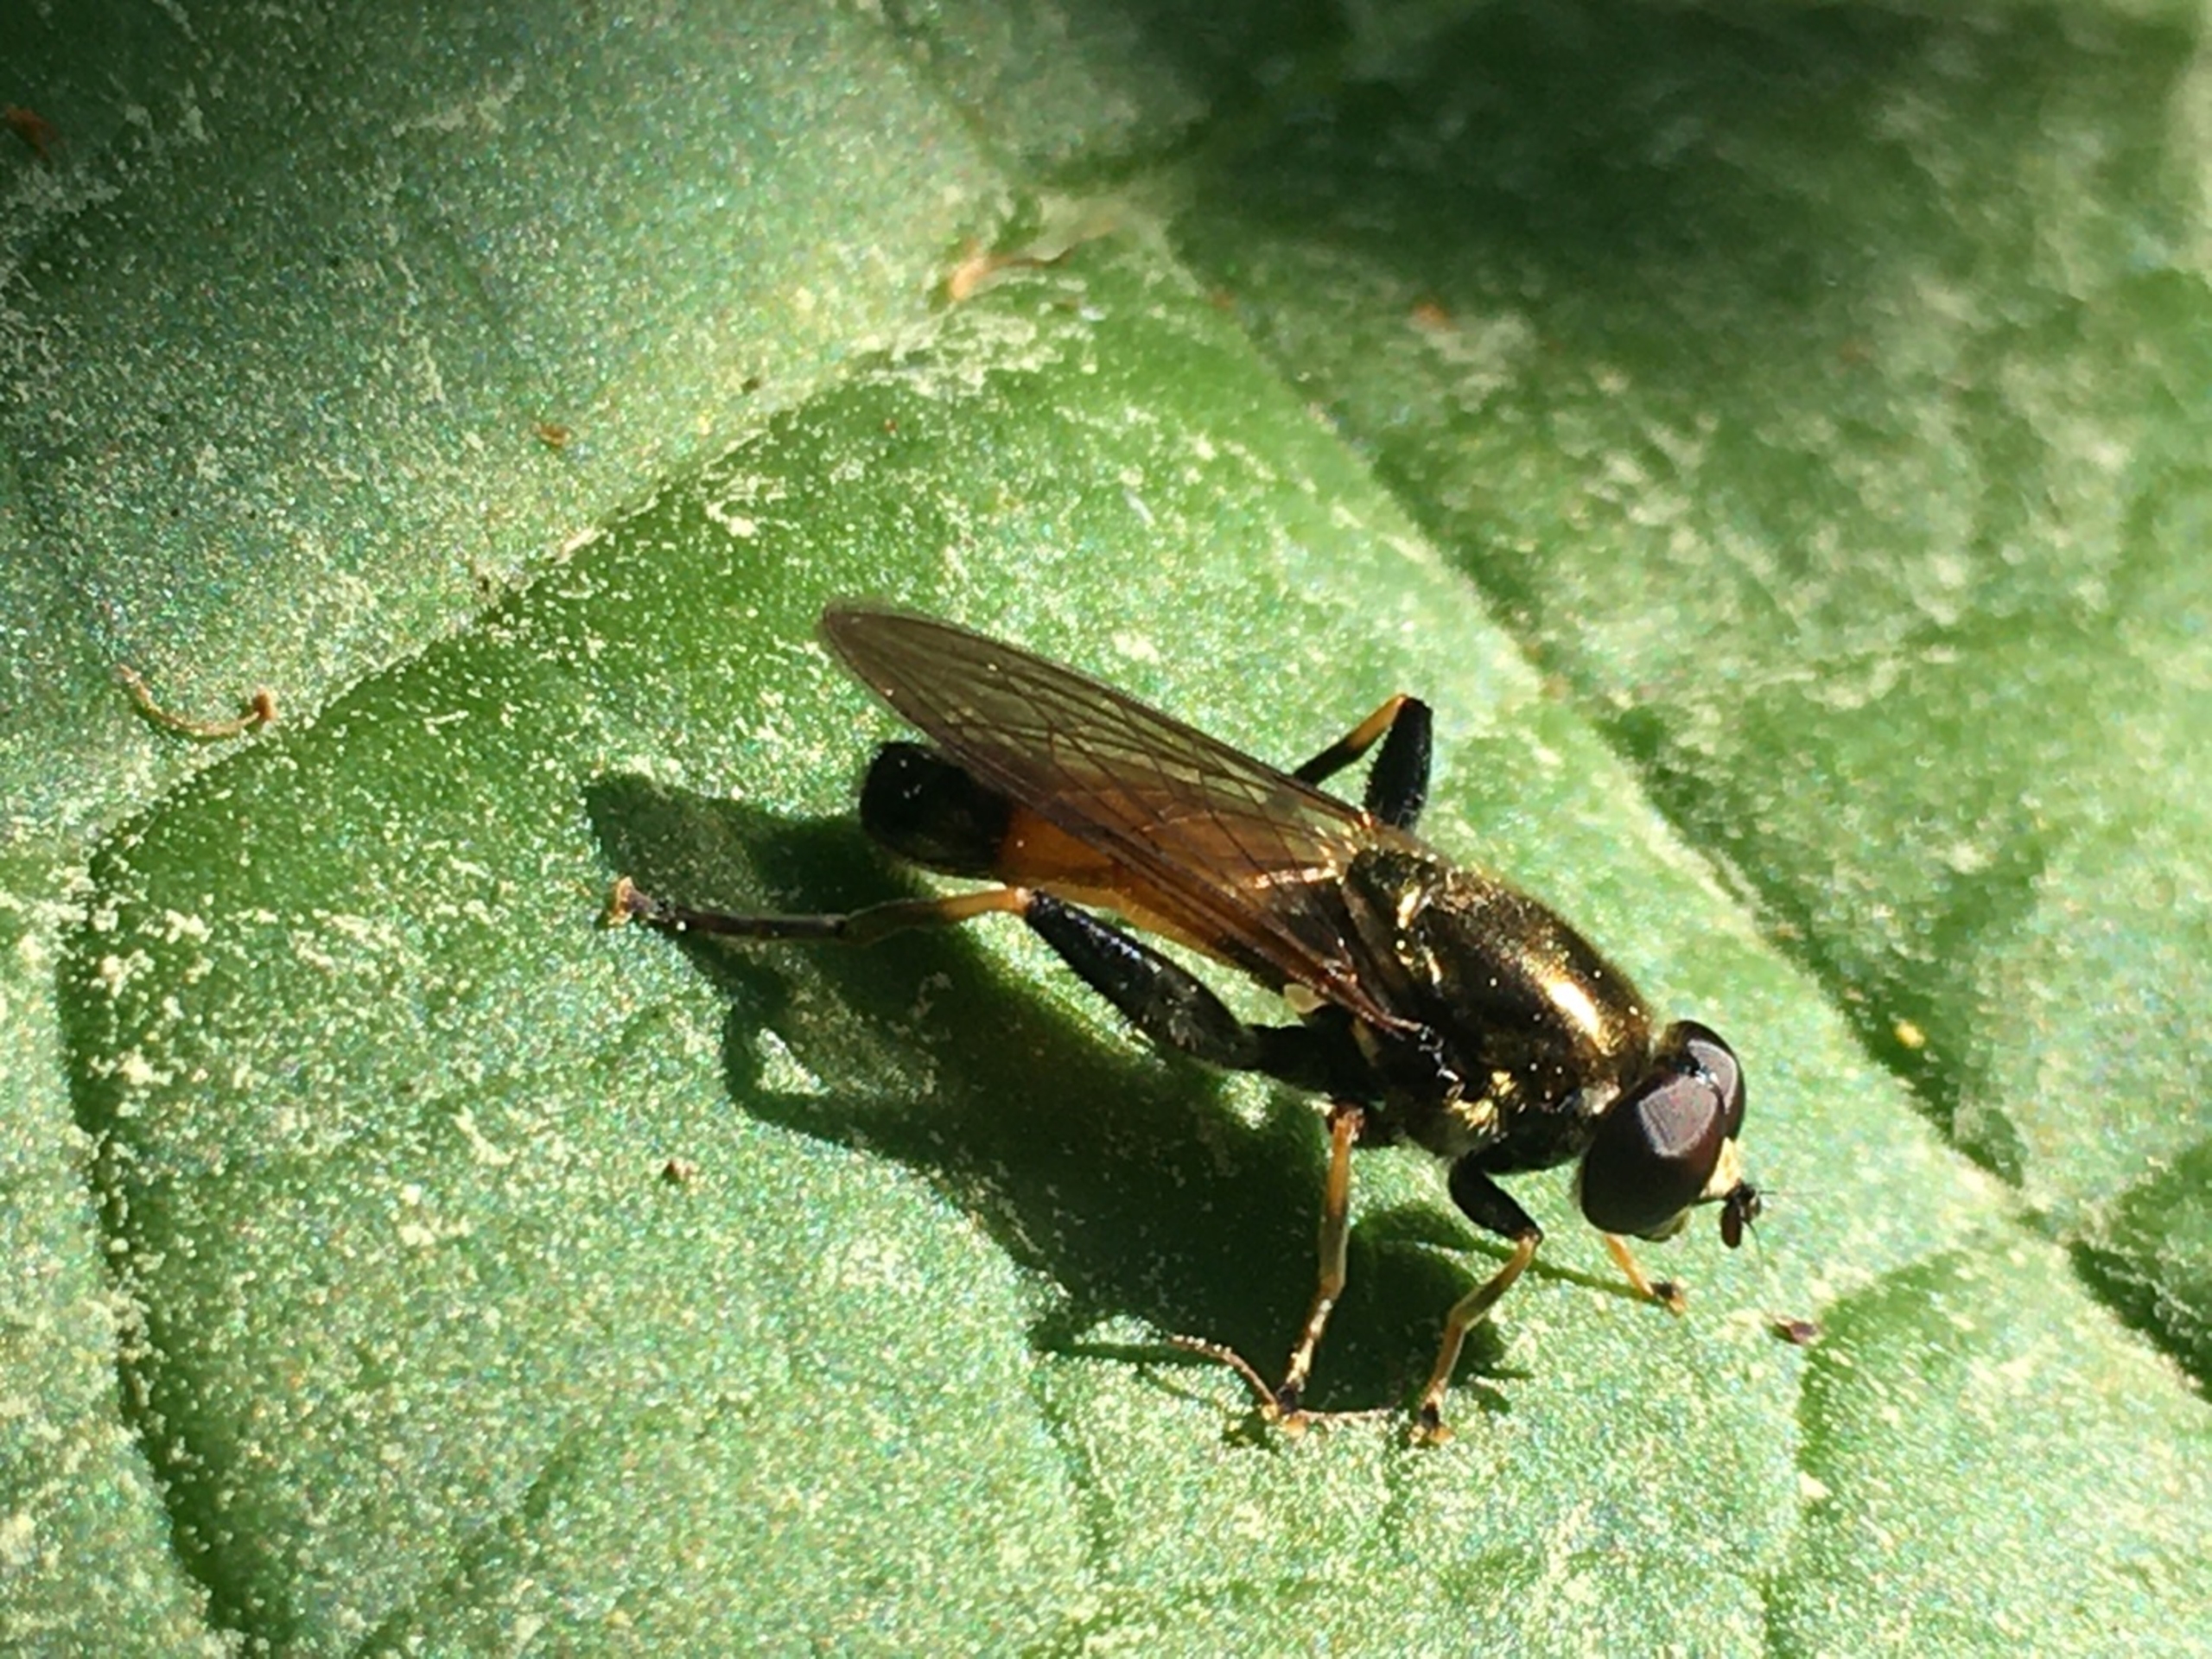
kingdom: Animalia
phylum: Arthropoda
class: Insecta
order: Diptera
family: Syrphidae
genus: Xylota
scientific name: Xylota segnis
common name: Almindelig træsvirreflue
